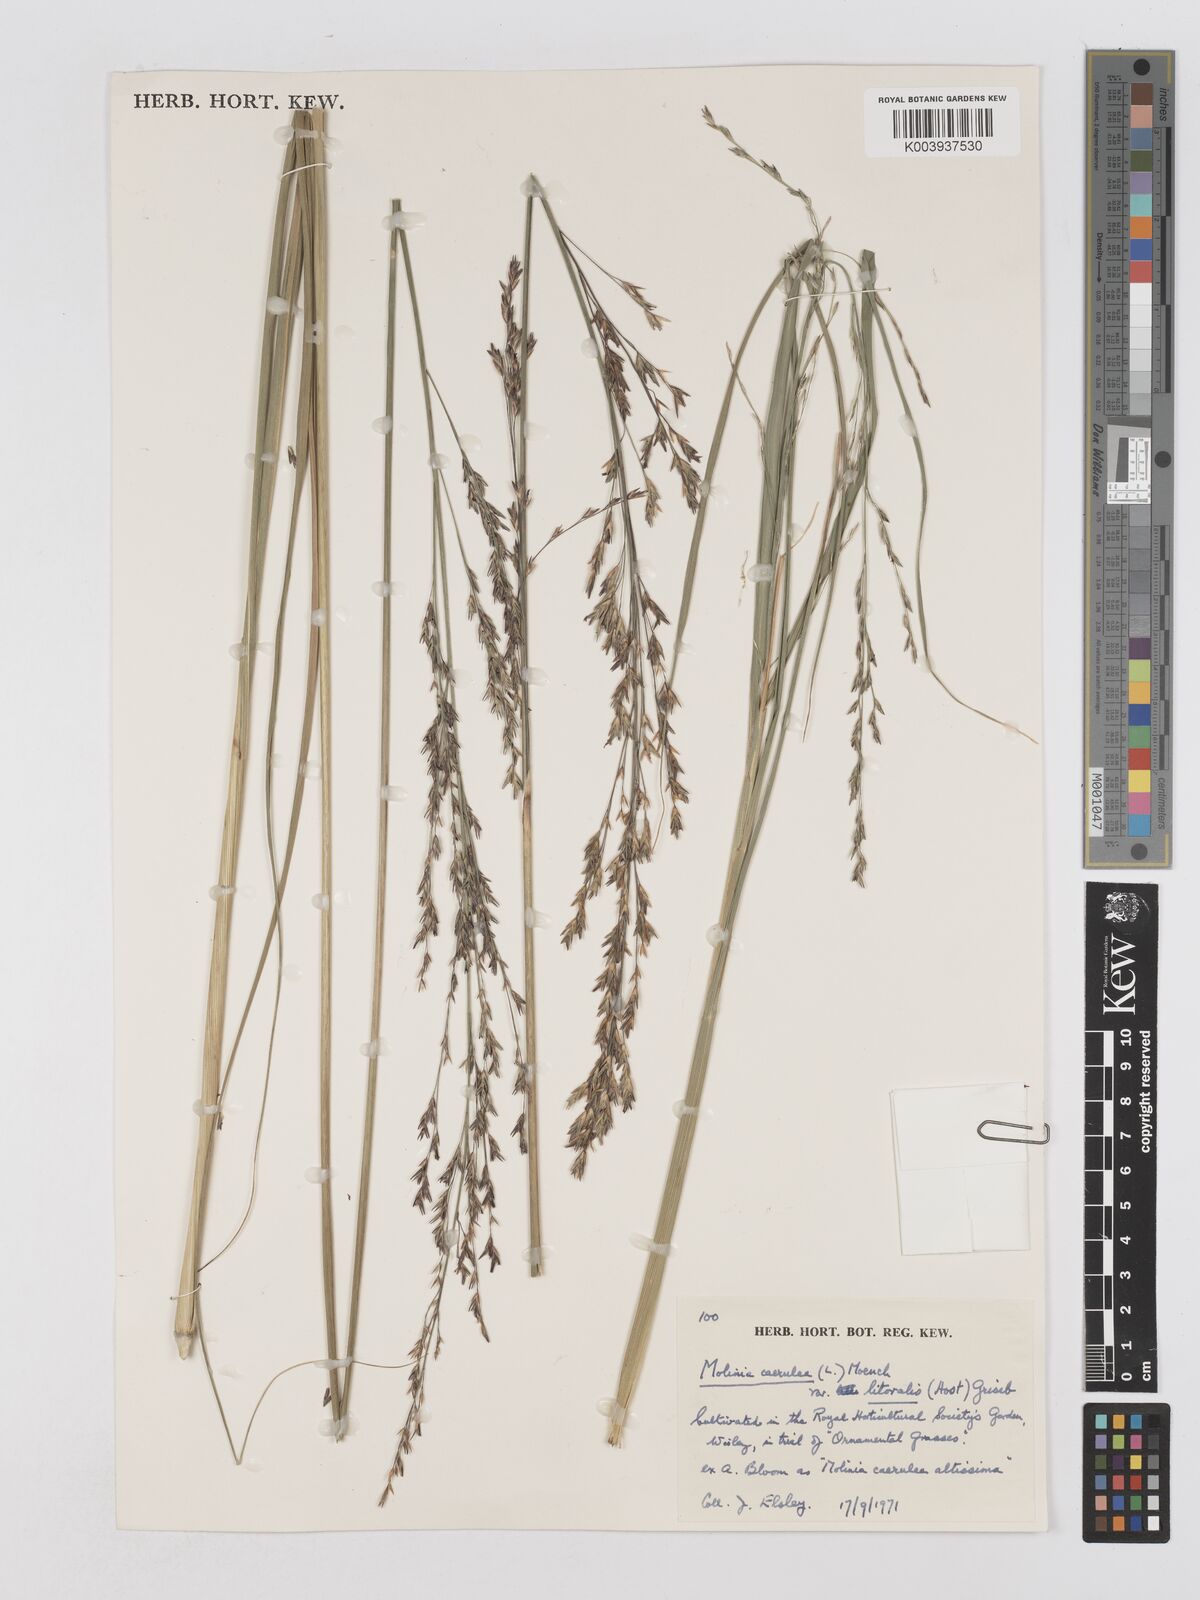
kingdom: Plantae
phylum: Tracheophyta
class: Liliopsida
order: Poales
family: Poaceae
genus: Molinia
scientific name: Molinia caerulea
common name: Purple moor-grass
